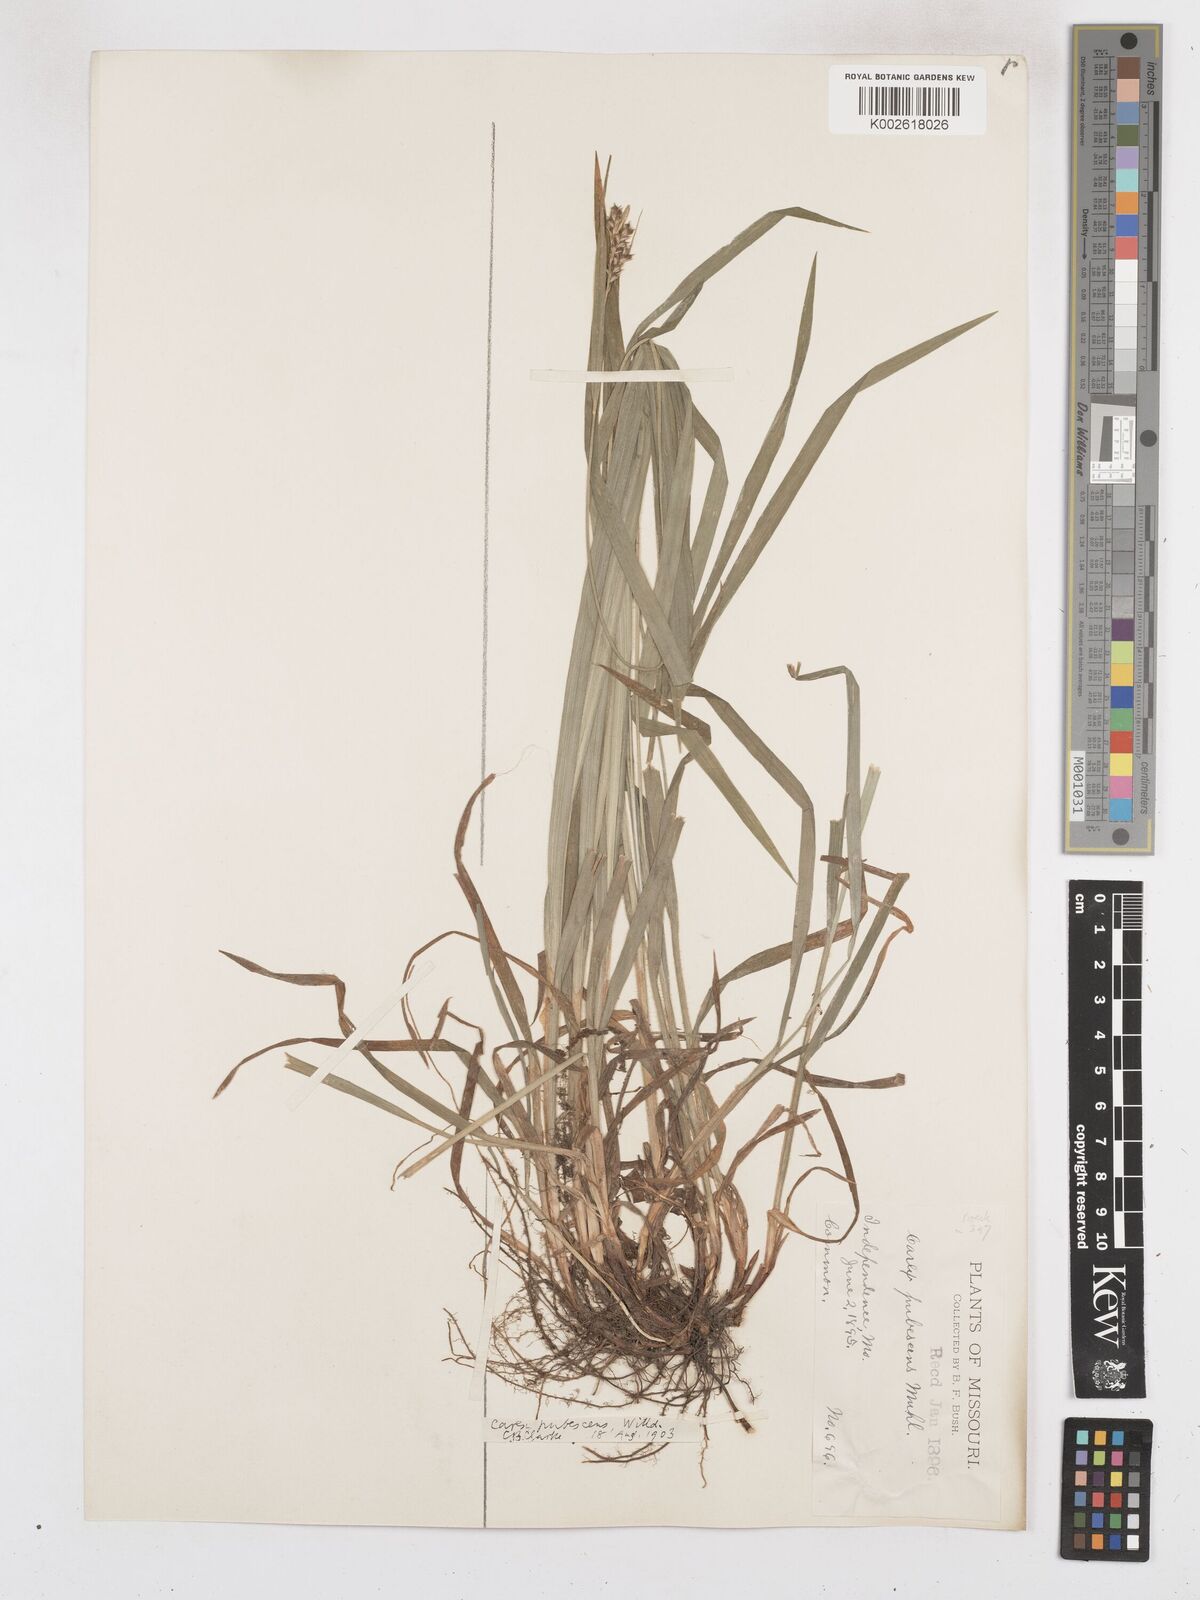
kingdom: Plantae
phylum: Tracheophyta
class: Liliopsida
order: Poales
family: Cyperaceae
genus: Carex
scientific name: Carex hirtifolia
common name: Hairy sedge
